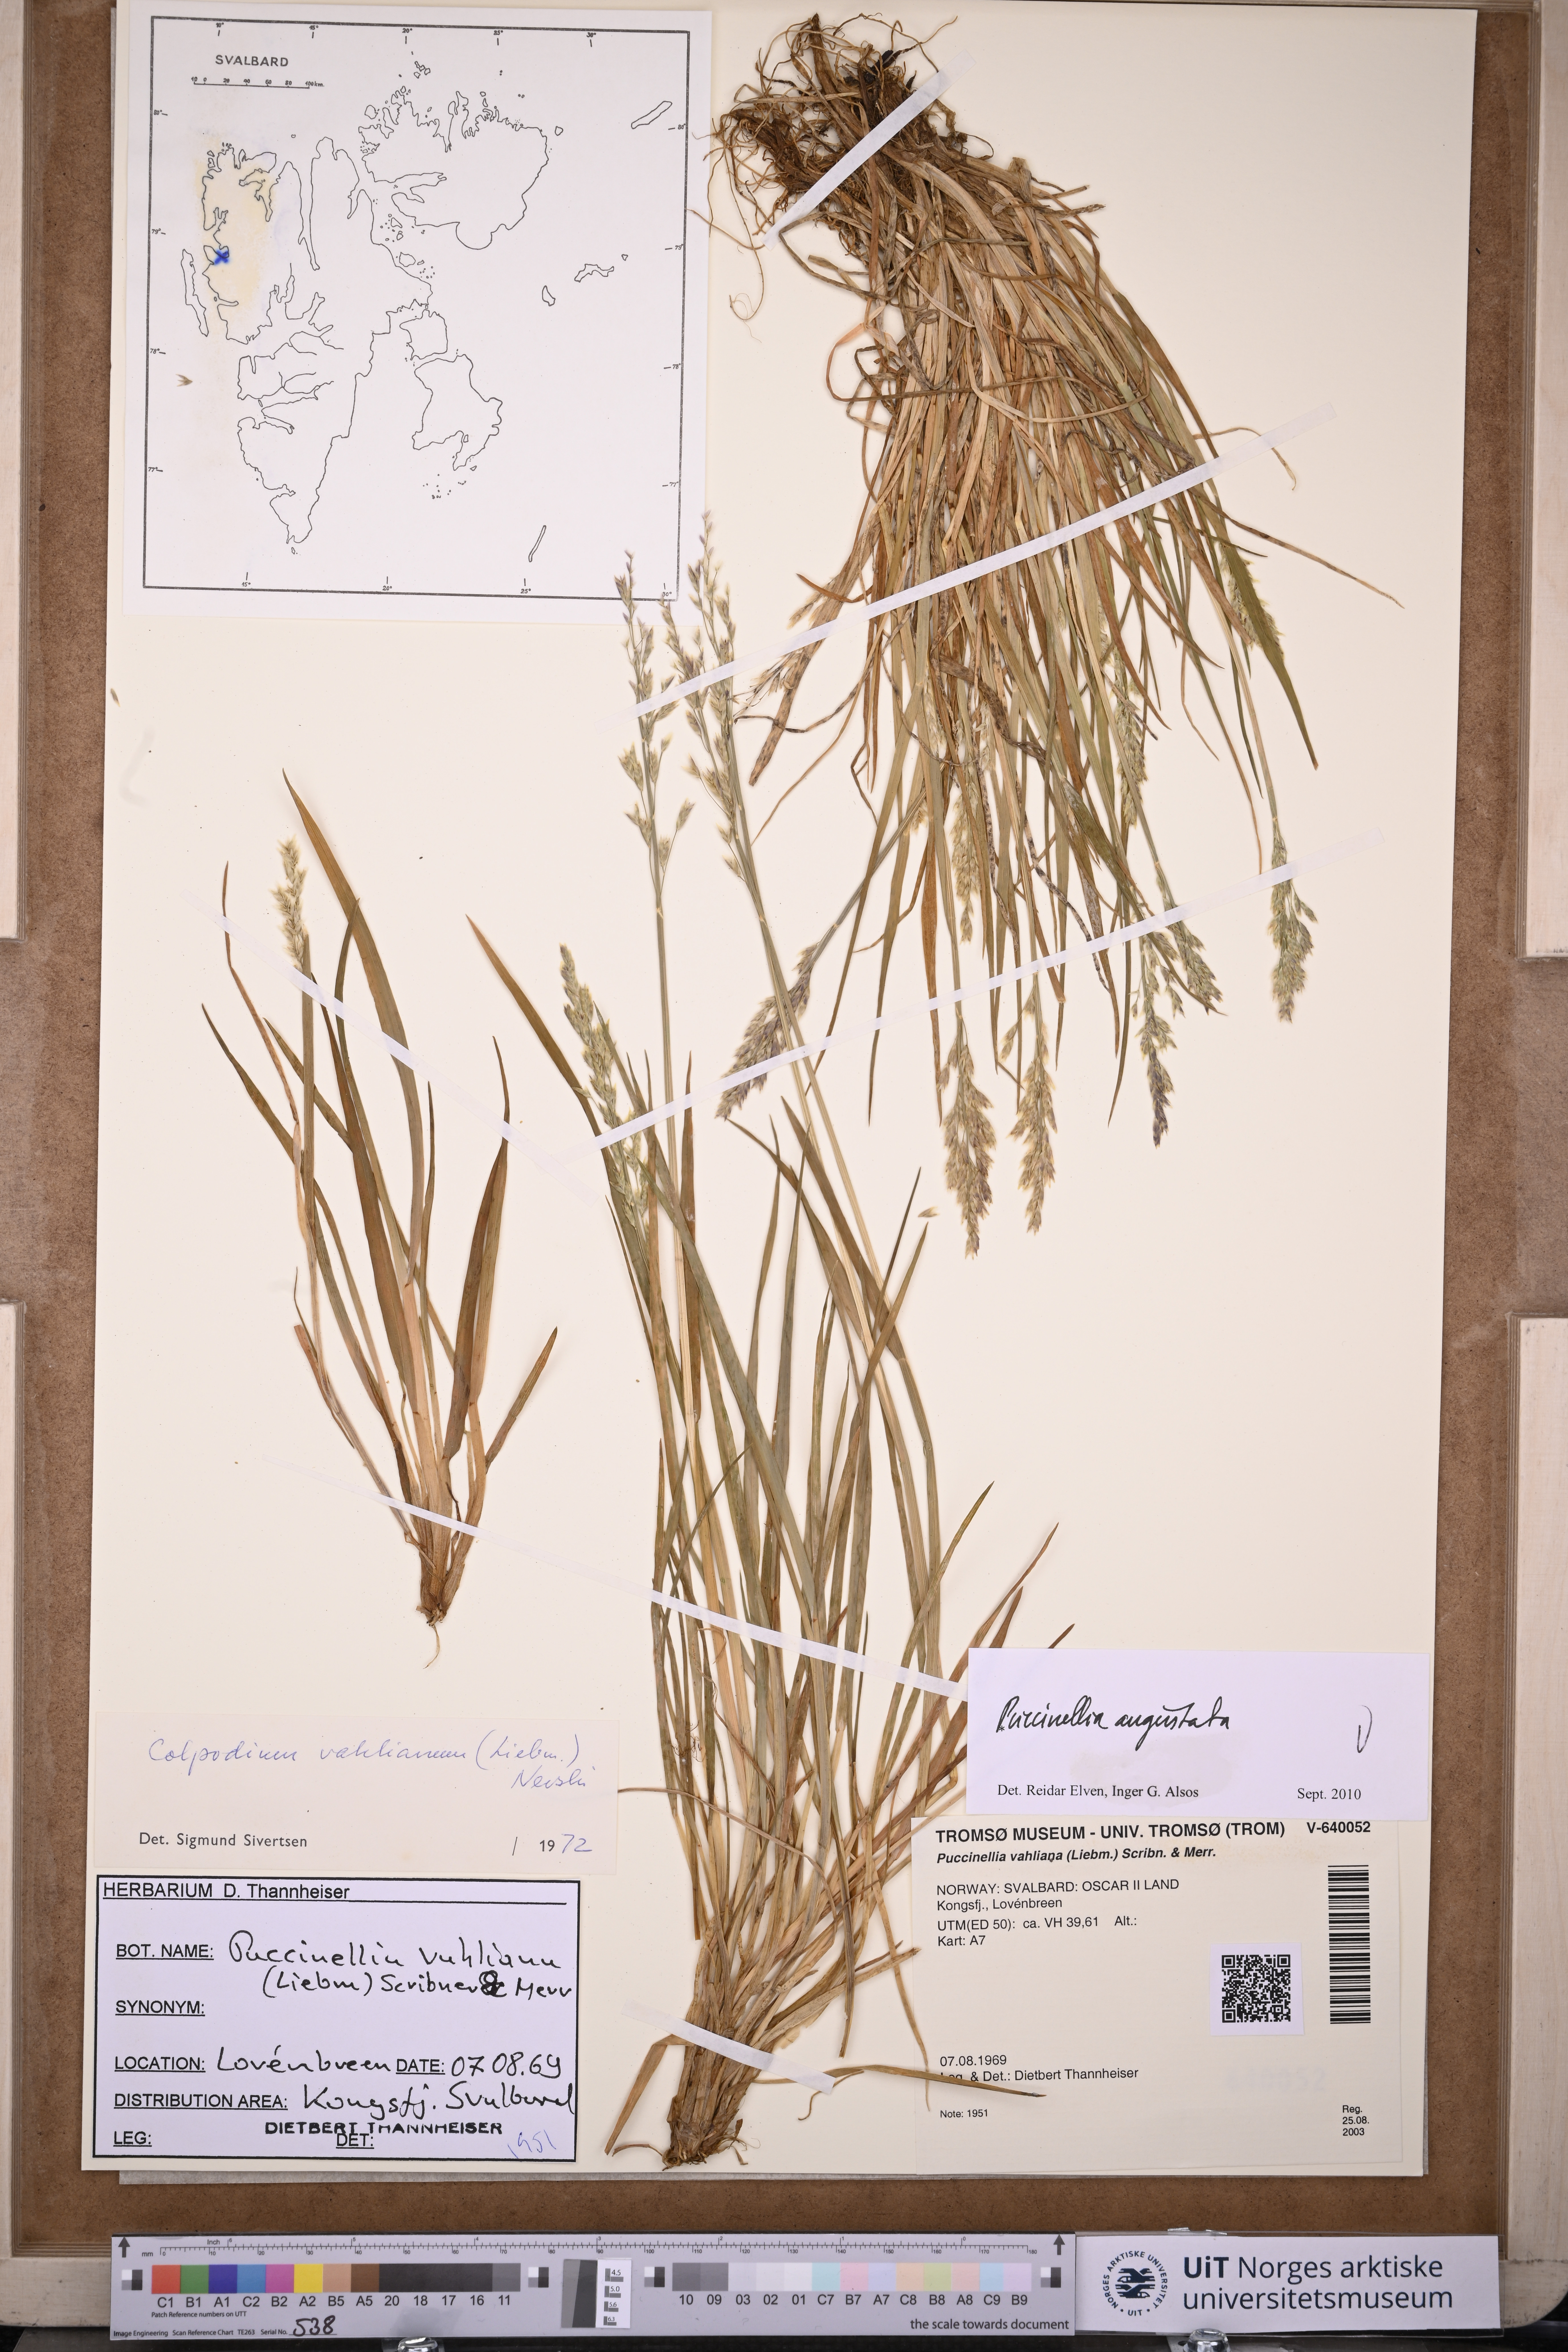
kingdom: Plantae
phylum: Tracheophyta
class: Liliopsida
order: Poales
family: Poaceae
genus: Puccinellia
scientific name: Puccinellia angustata
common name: Narrow alkaligrass
